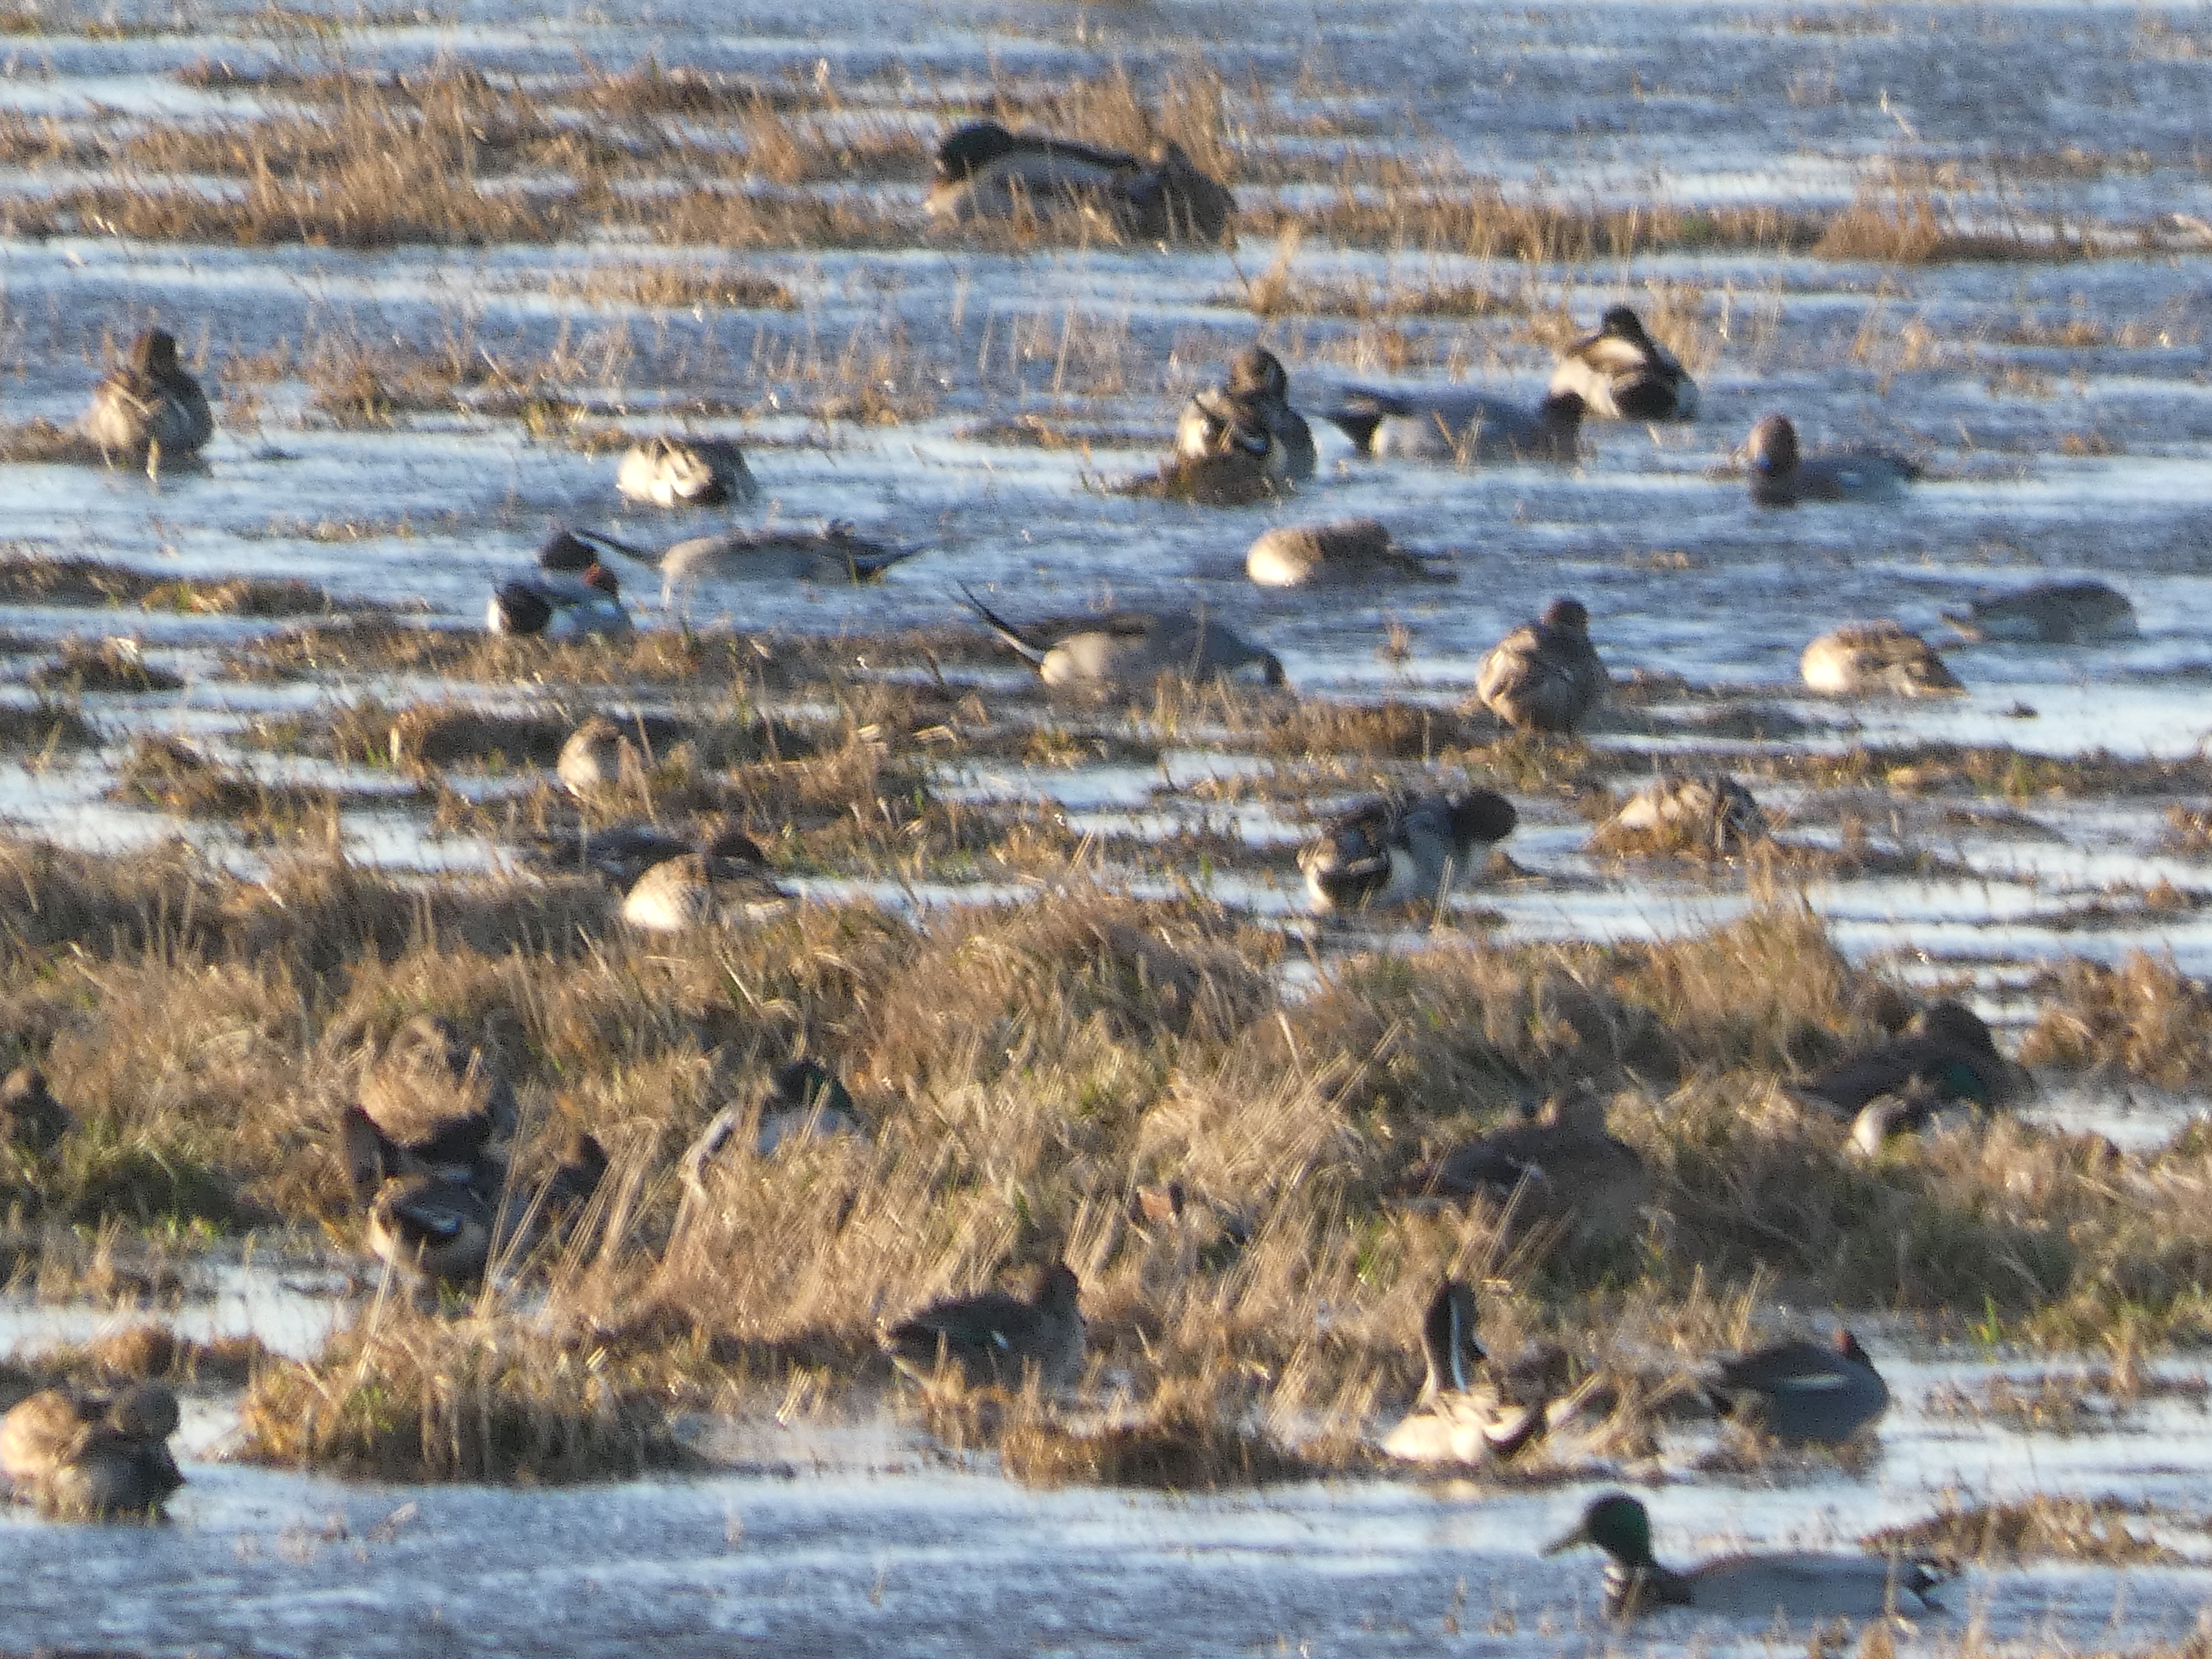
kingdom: Animalia
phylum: Chordata
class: Aves
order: Anseriformes
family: Anatidae
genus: Anas
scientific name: Anas platyrhynchos
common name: Gråand
